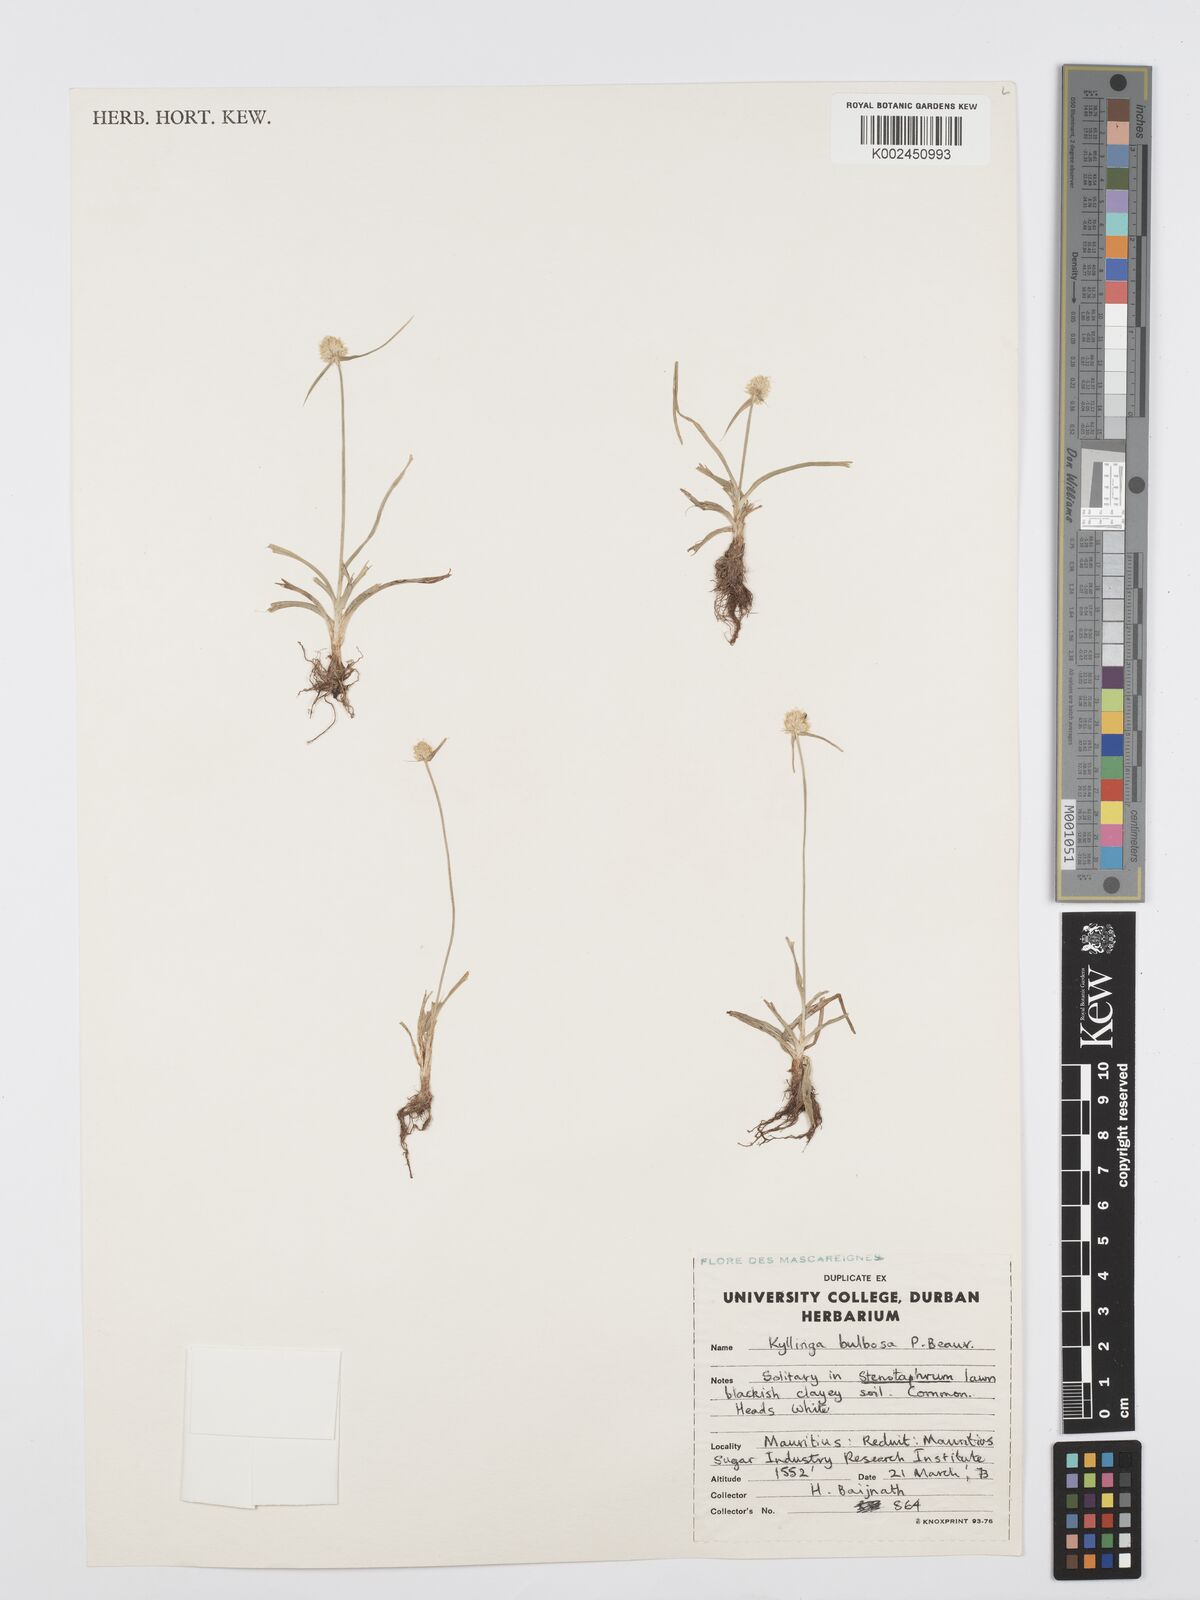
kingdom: Plantae
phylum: Tracheophyta
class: Liliopsida
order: Poales
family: Cyperaceae
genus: Cyperus
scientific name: Cyperus conglobatus
